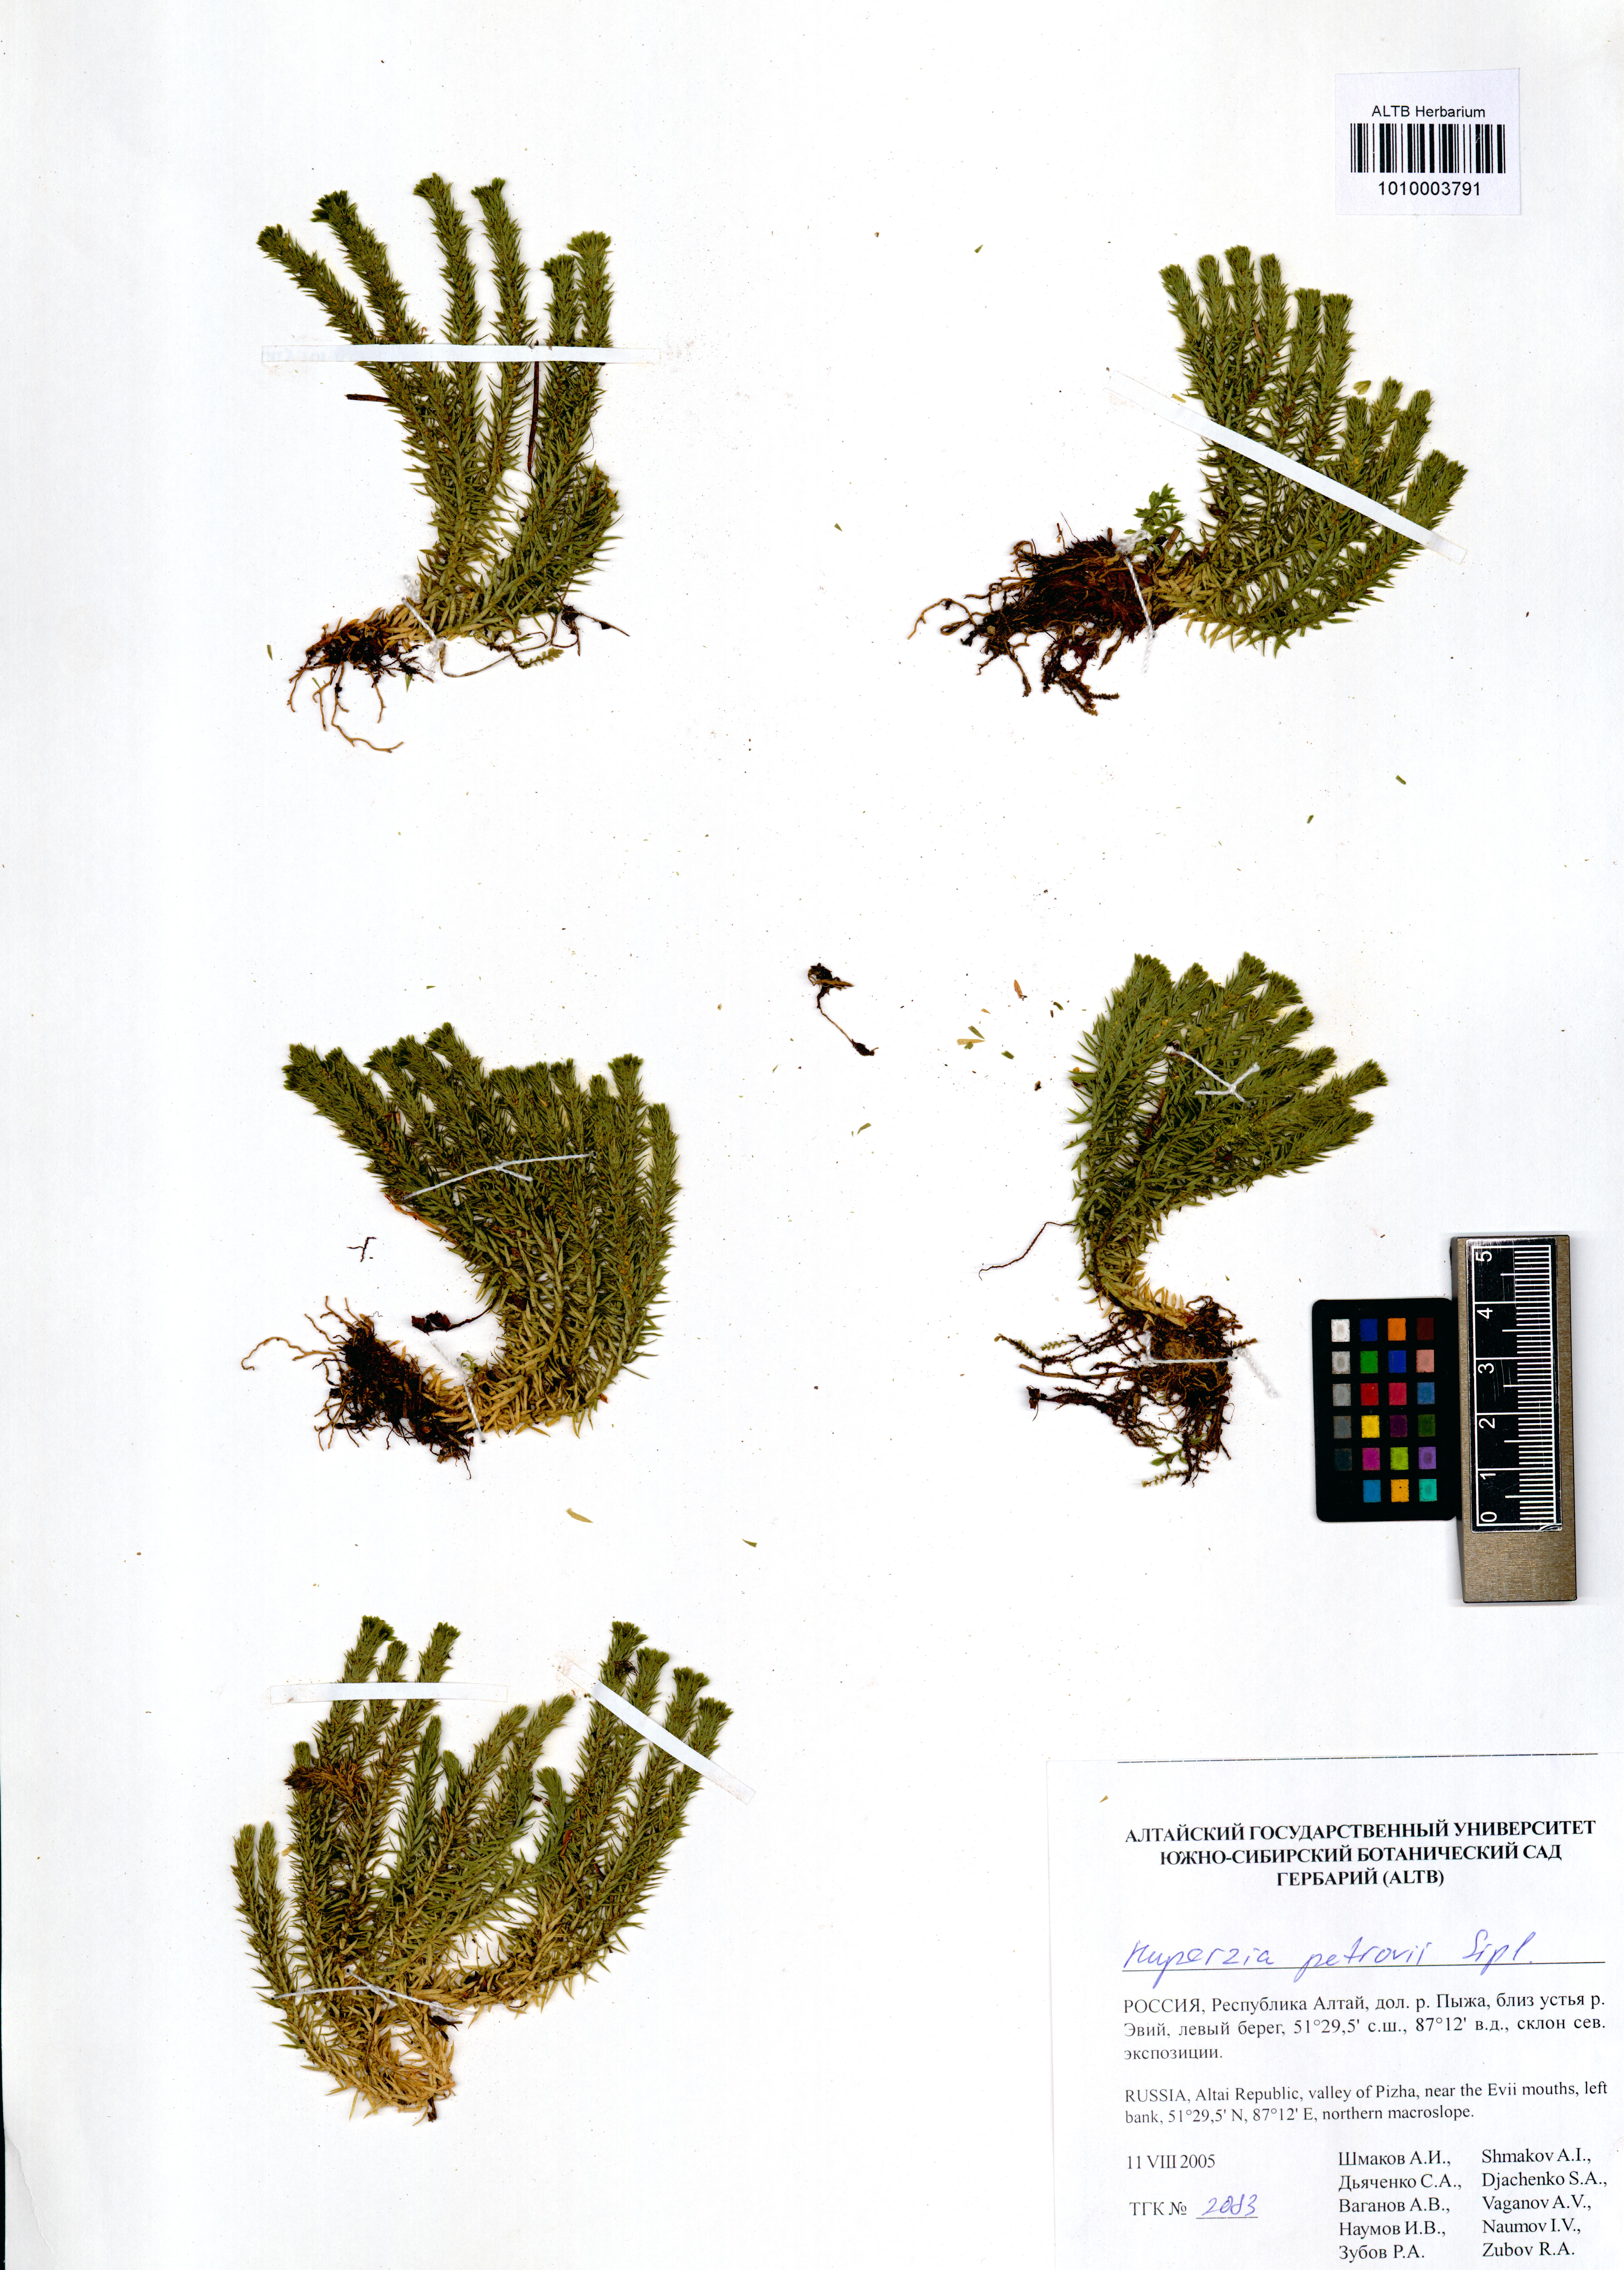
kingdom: Plantae
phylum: Tracheophyta
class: Lycopodiopsida
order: Lycopodiales
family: Lycopodiaceae
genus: Huperzia
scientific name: Huperzia selago
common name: Northern firmoss
